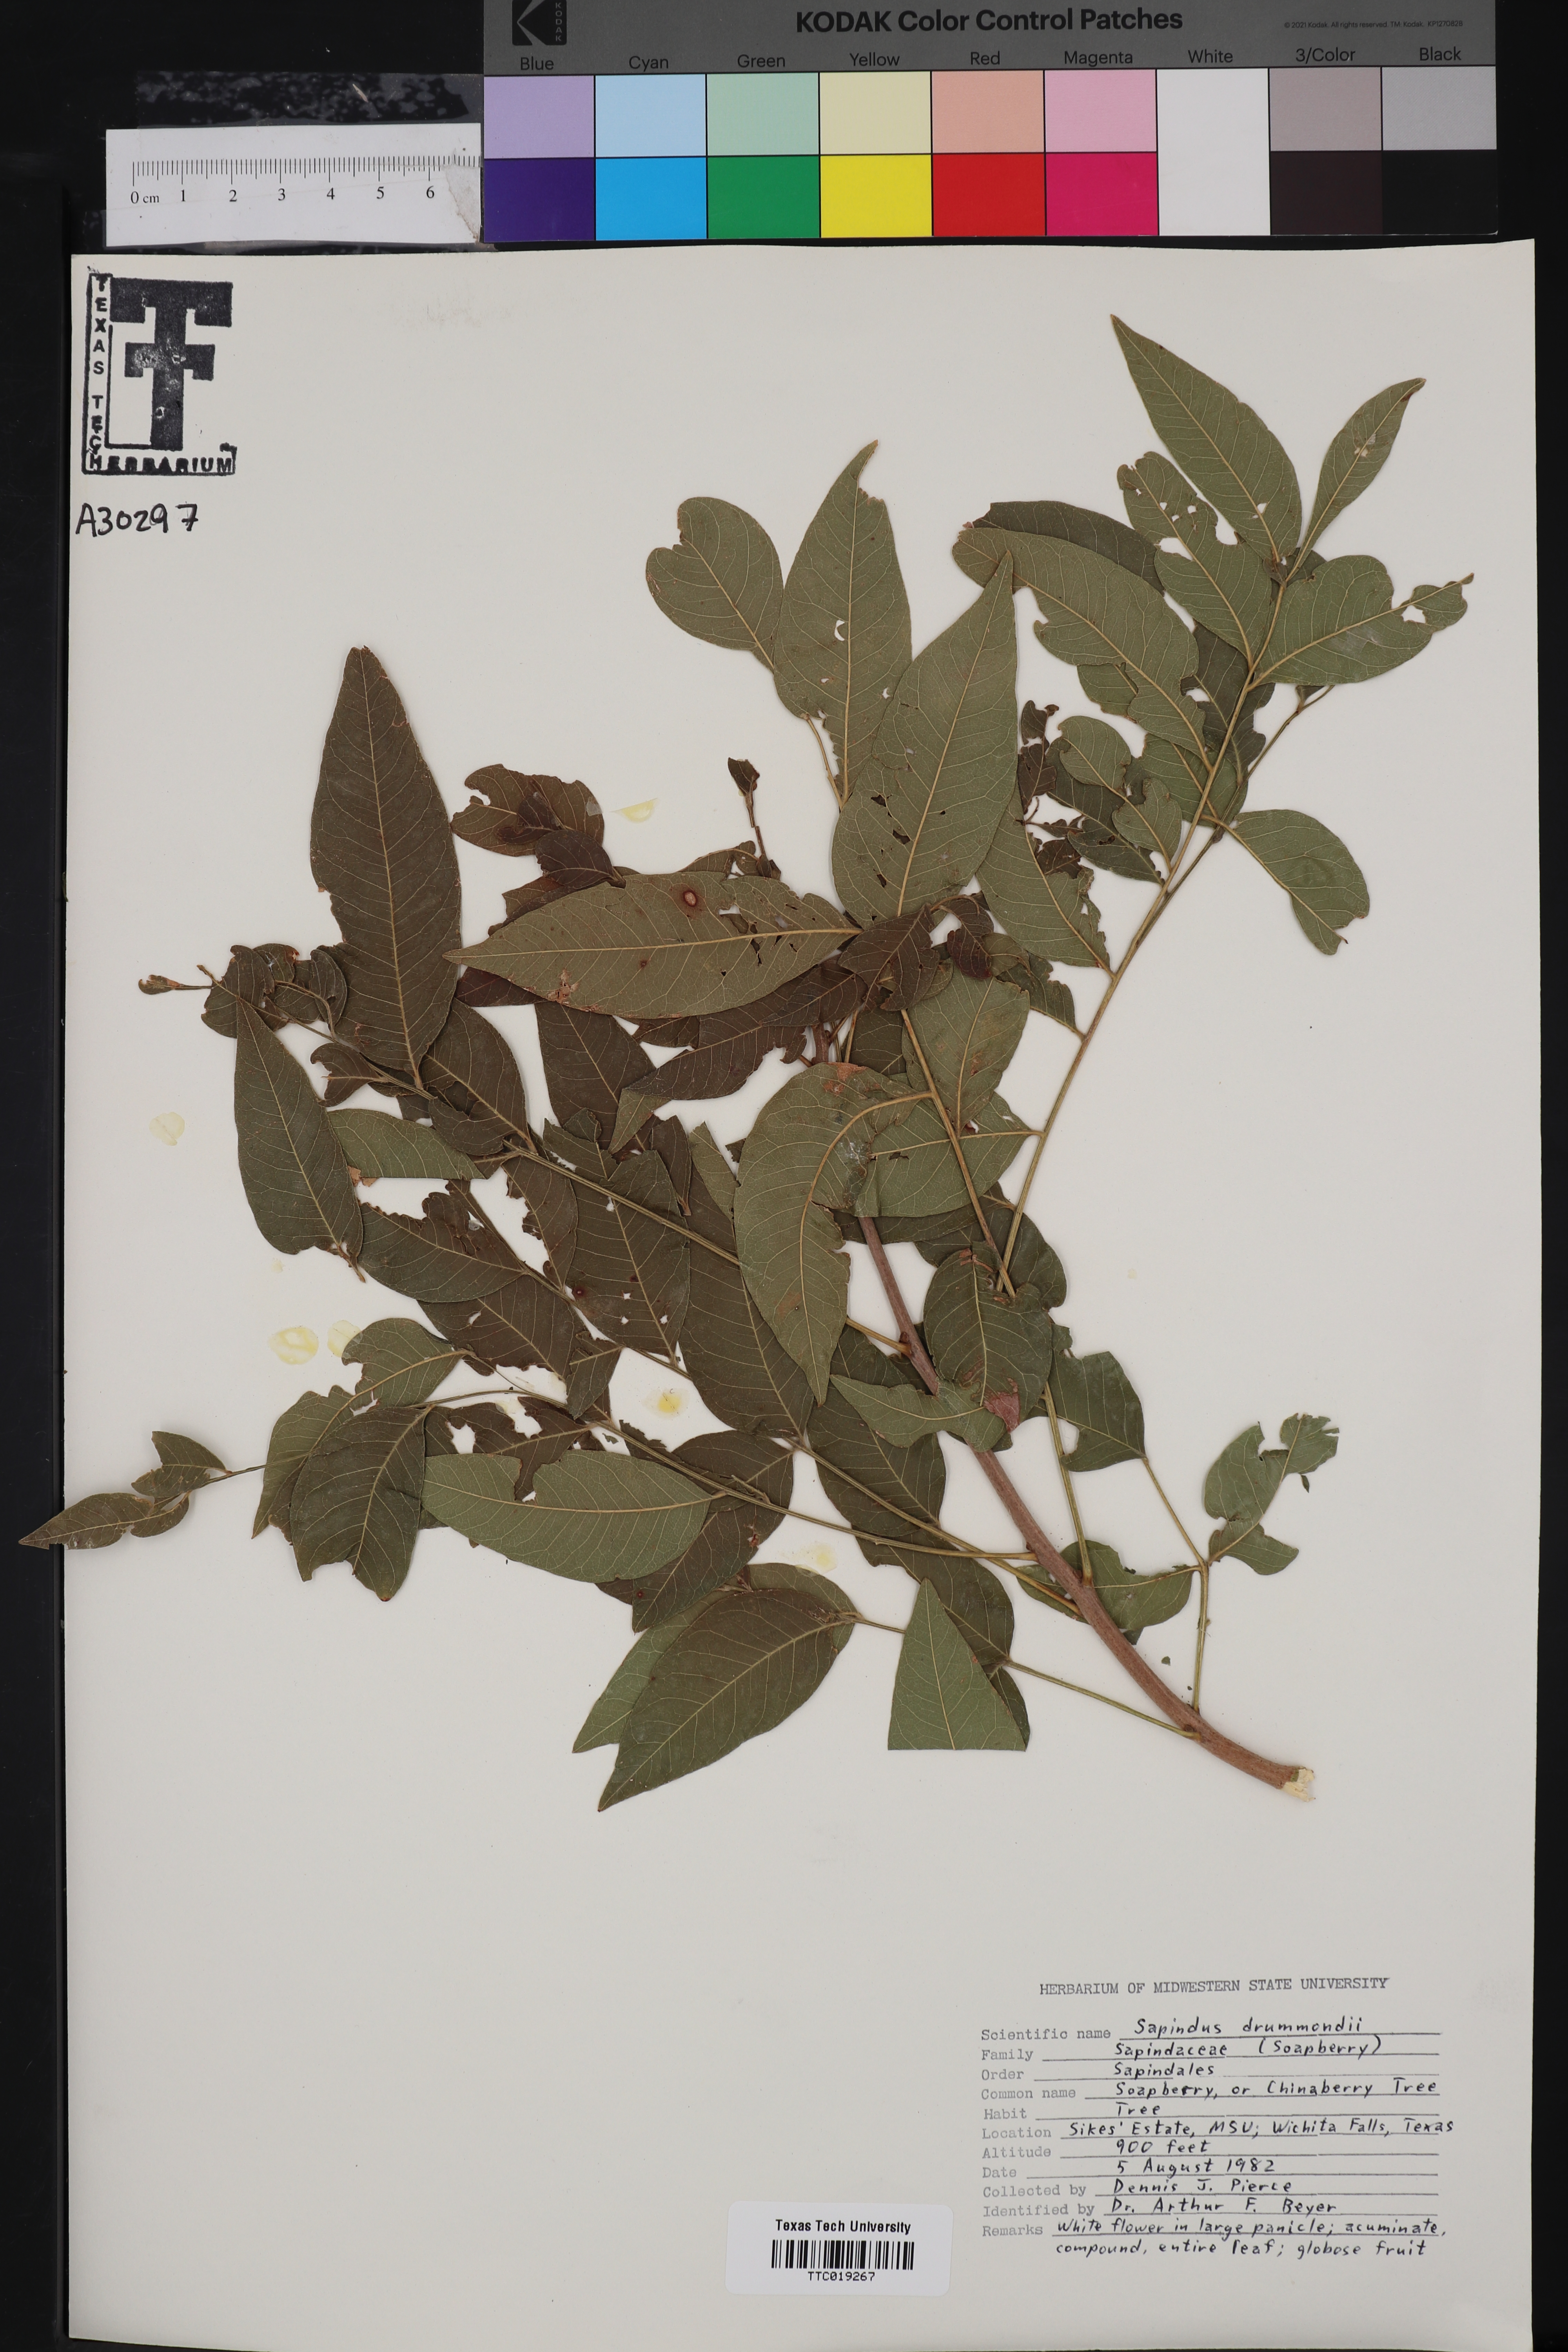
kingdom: Plantae
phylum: Tracheophyta
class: Magnoliopsida
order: Sapindales
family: Sapindaceae
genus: Sapindus
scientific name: Sapindus drummondii
